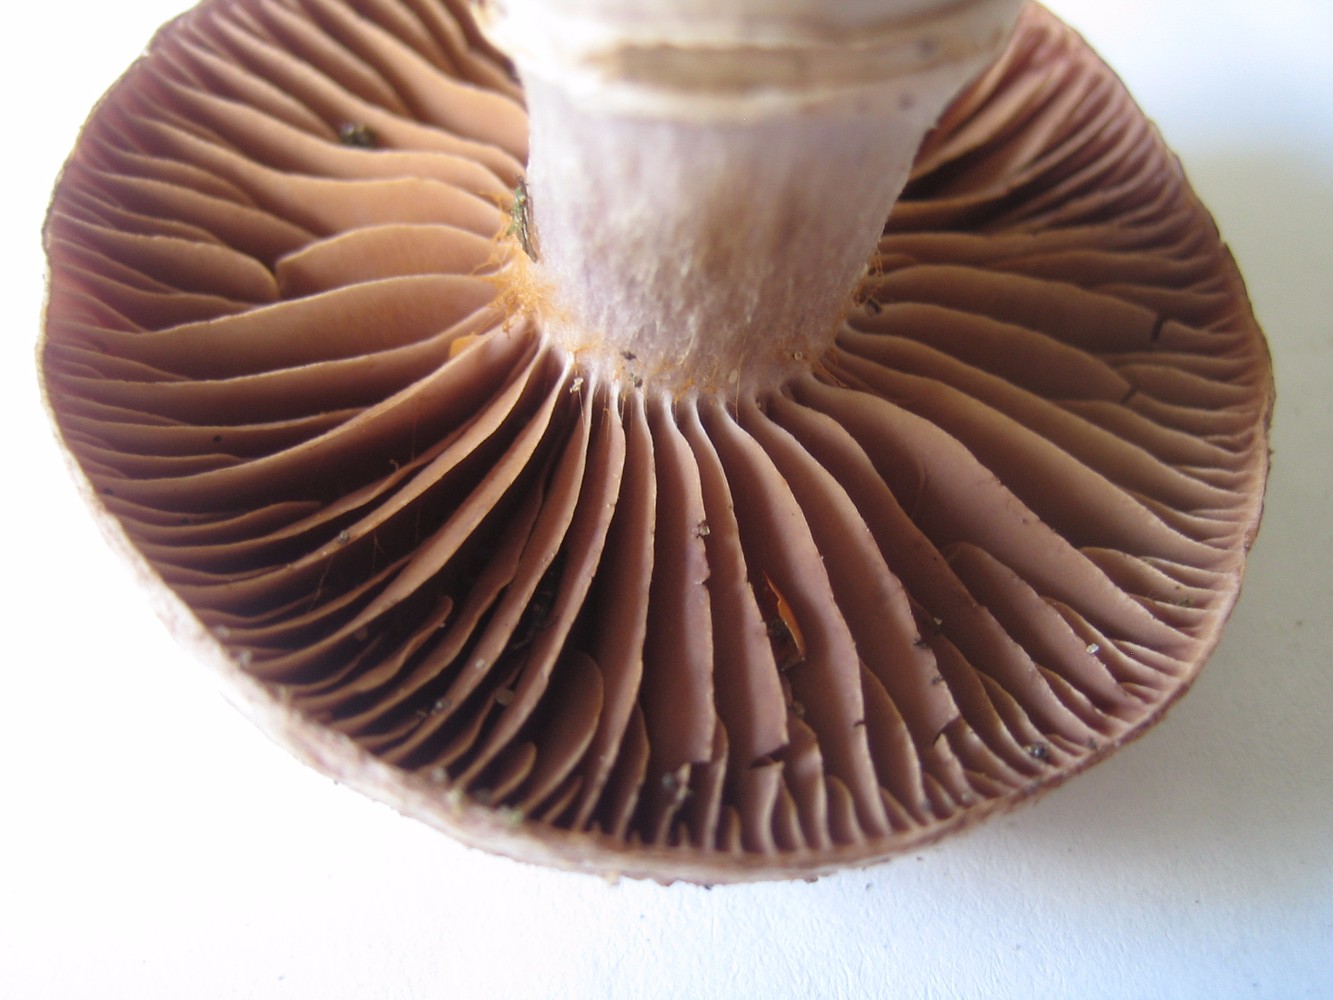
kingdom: Fungi
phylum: Basidiomycota
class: Agaricomycetes
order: Agaricales
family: Cortinariaceae
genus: Cortinarius
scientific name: Cortinarius torvus
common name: champignonagtig slørhat
